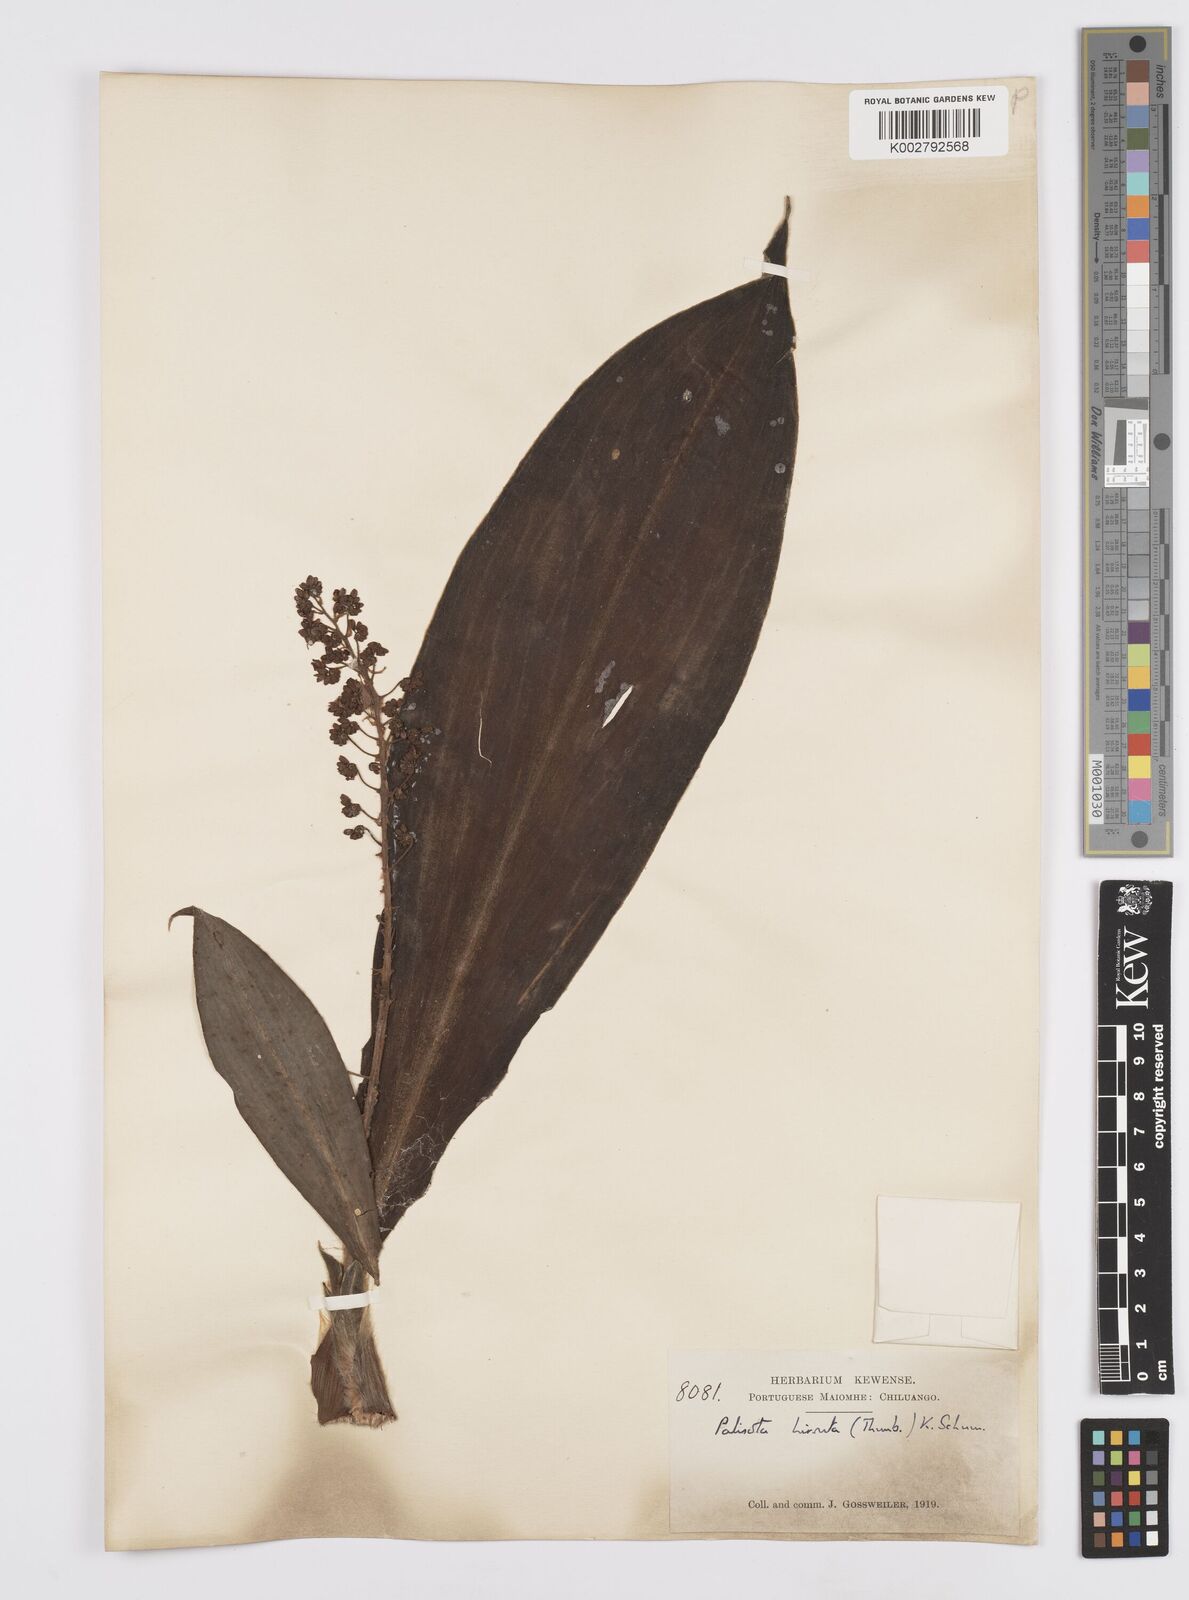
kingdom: Plantae
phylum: Tracheophyta
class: Liliopsida
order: Commelinales
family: Commelinaceae
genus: Palisota
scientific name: Palisota hirsuta
